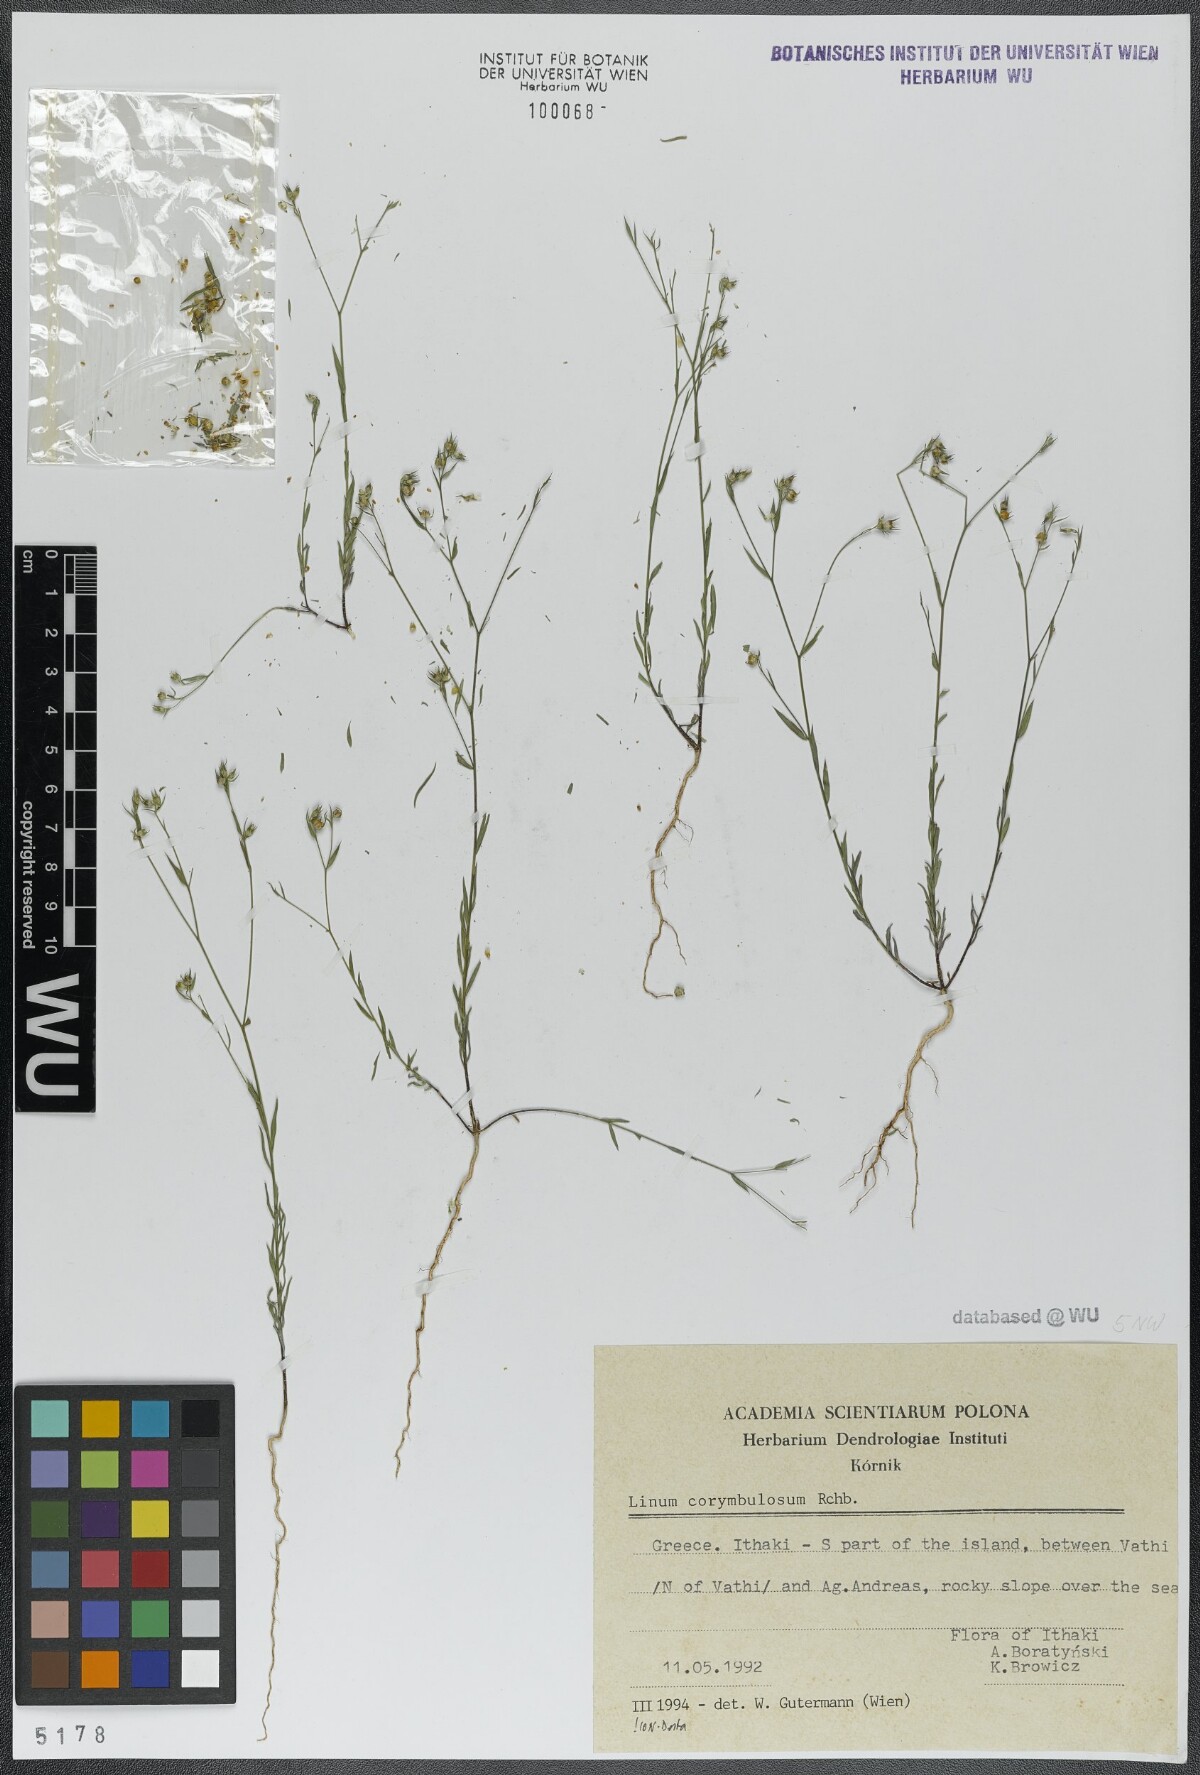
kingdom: Plantae
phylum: Tracheophyta
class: Magnoliopsida
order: Malpighiales
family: Linaceae
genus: Linum
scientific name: Linum corymbulosum
